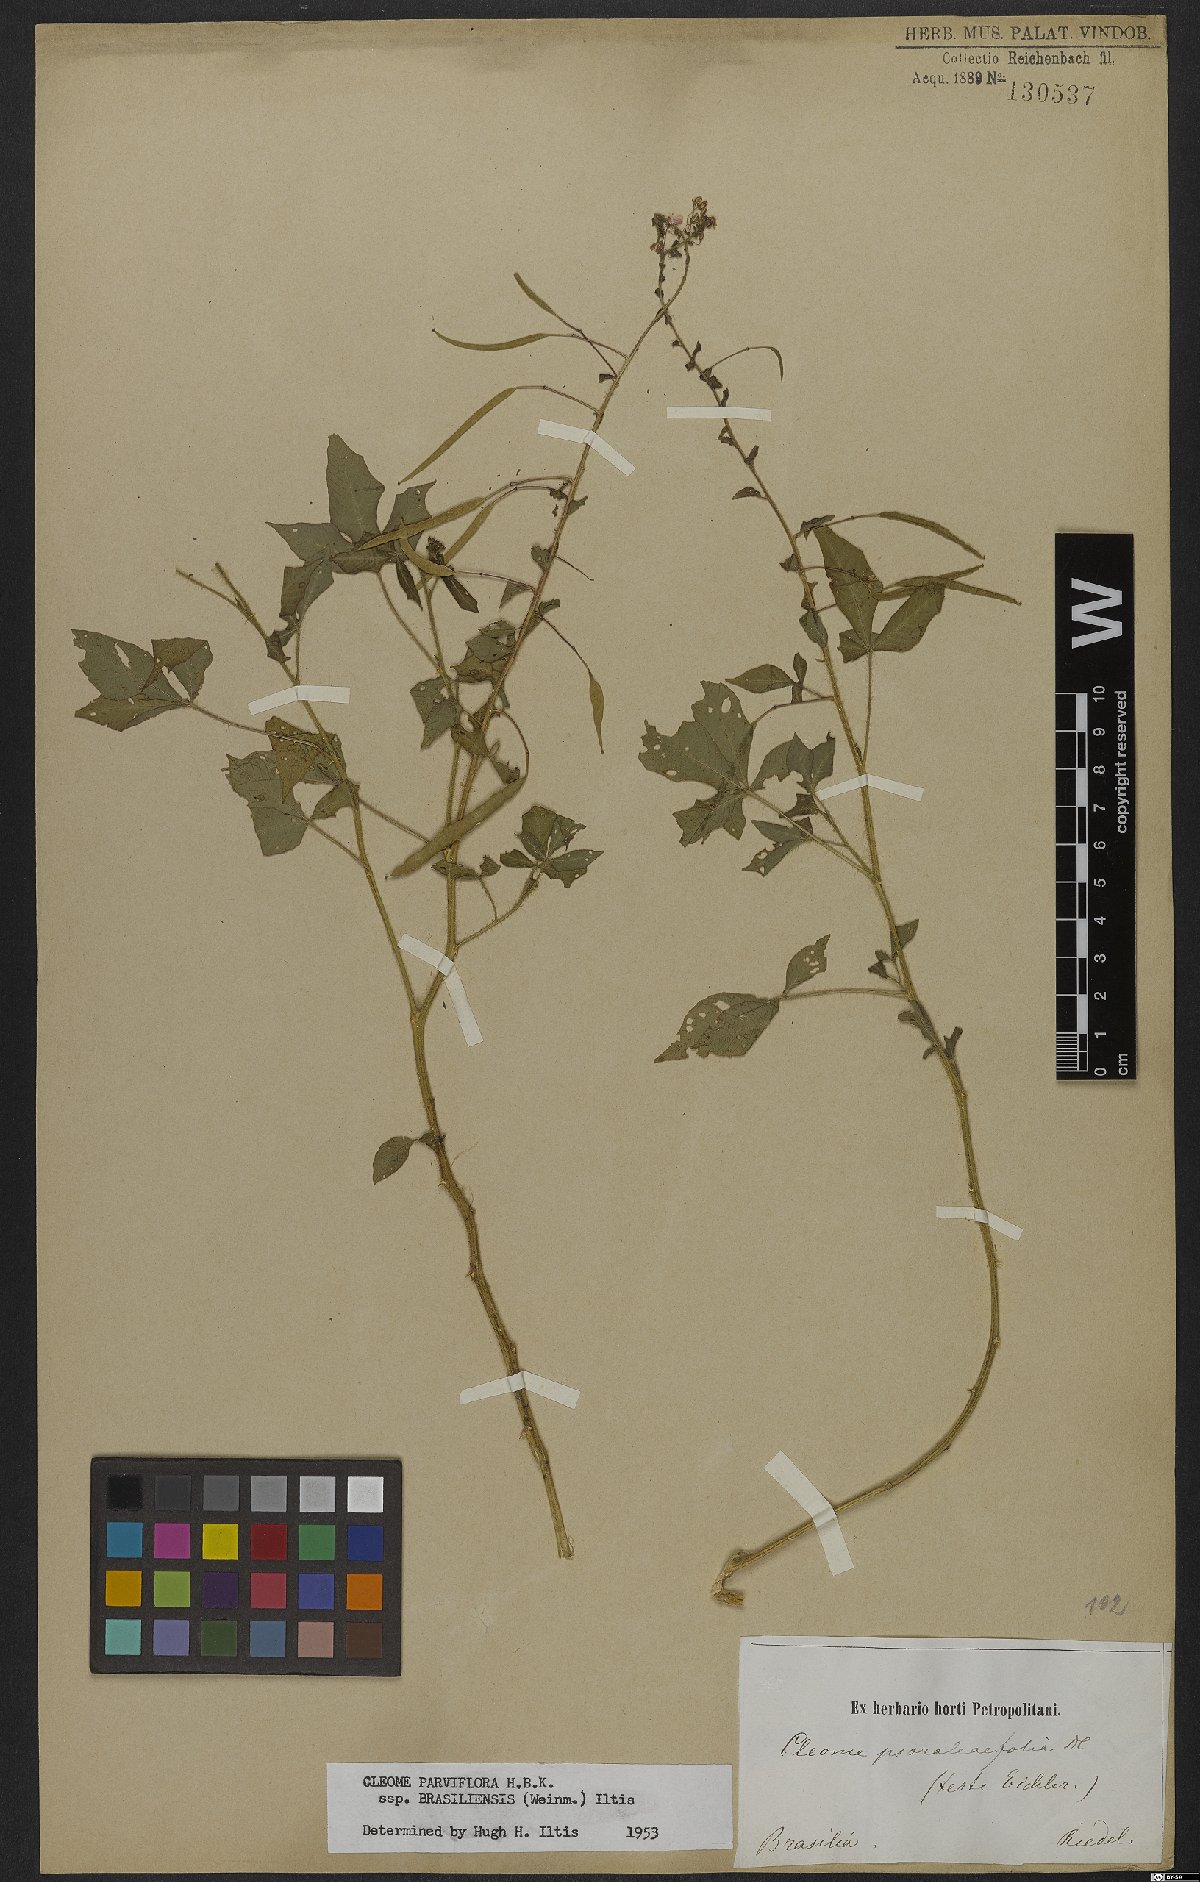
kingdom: Plantae
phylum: Tracheophyta
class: Magnoliopsida
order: Brassicales
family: Cleomaceae
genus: Tarenaya
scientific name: Tarenaya parviflora
